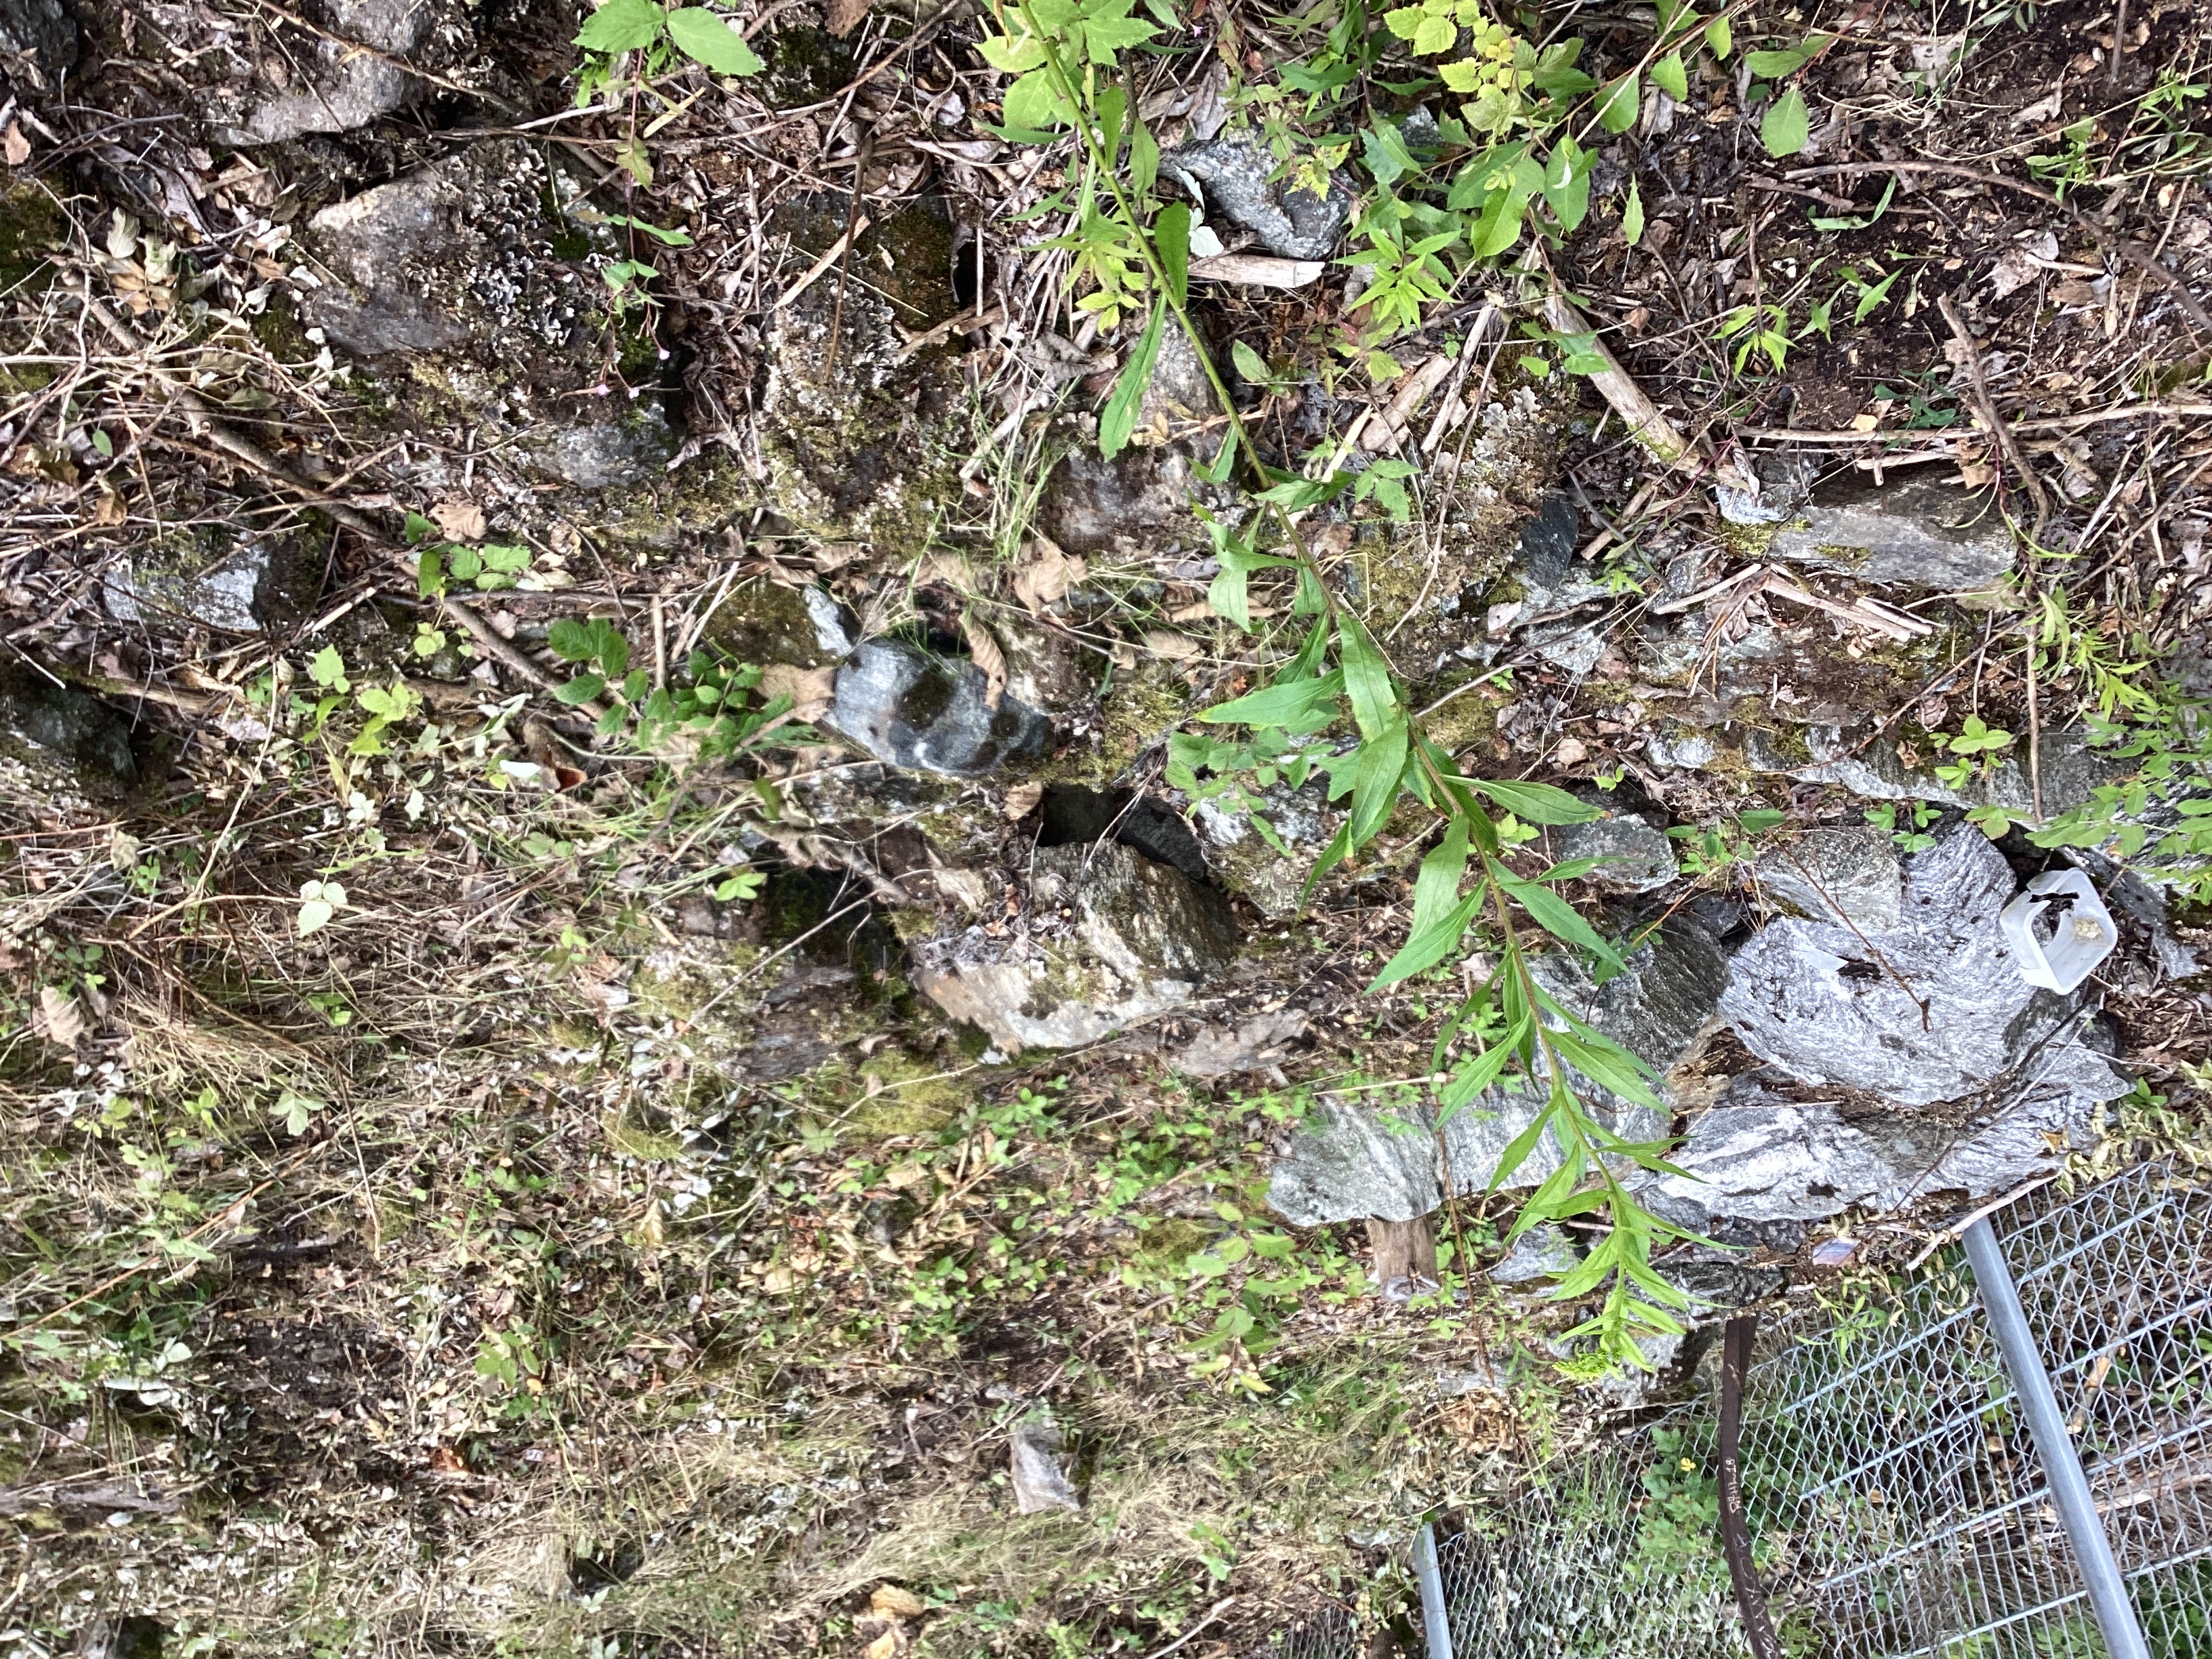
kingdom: Plantae
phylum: Tracheophyta
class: Magnoliopsida
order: Asterales
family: Asteraceae
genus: Solidago
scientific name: Solidago canadensis
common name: kanadagullris
